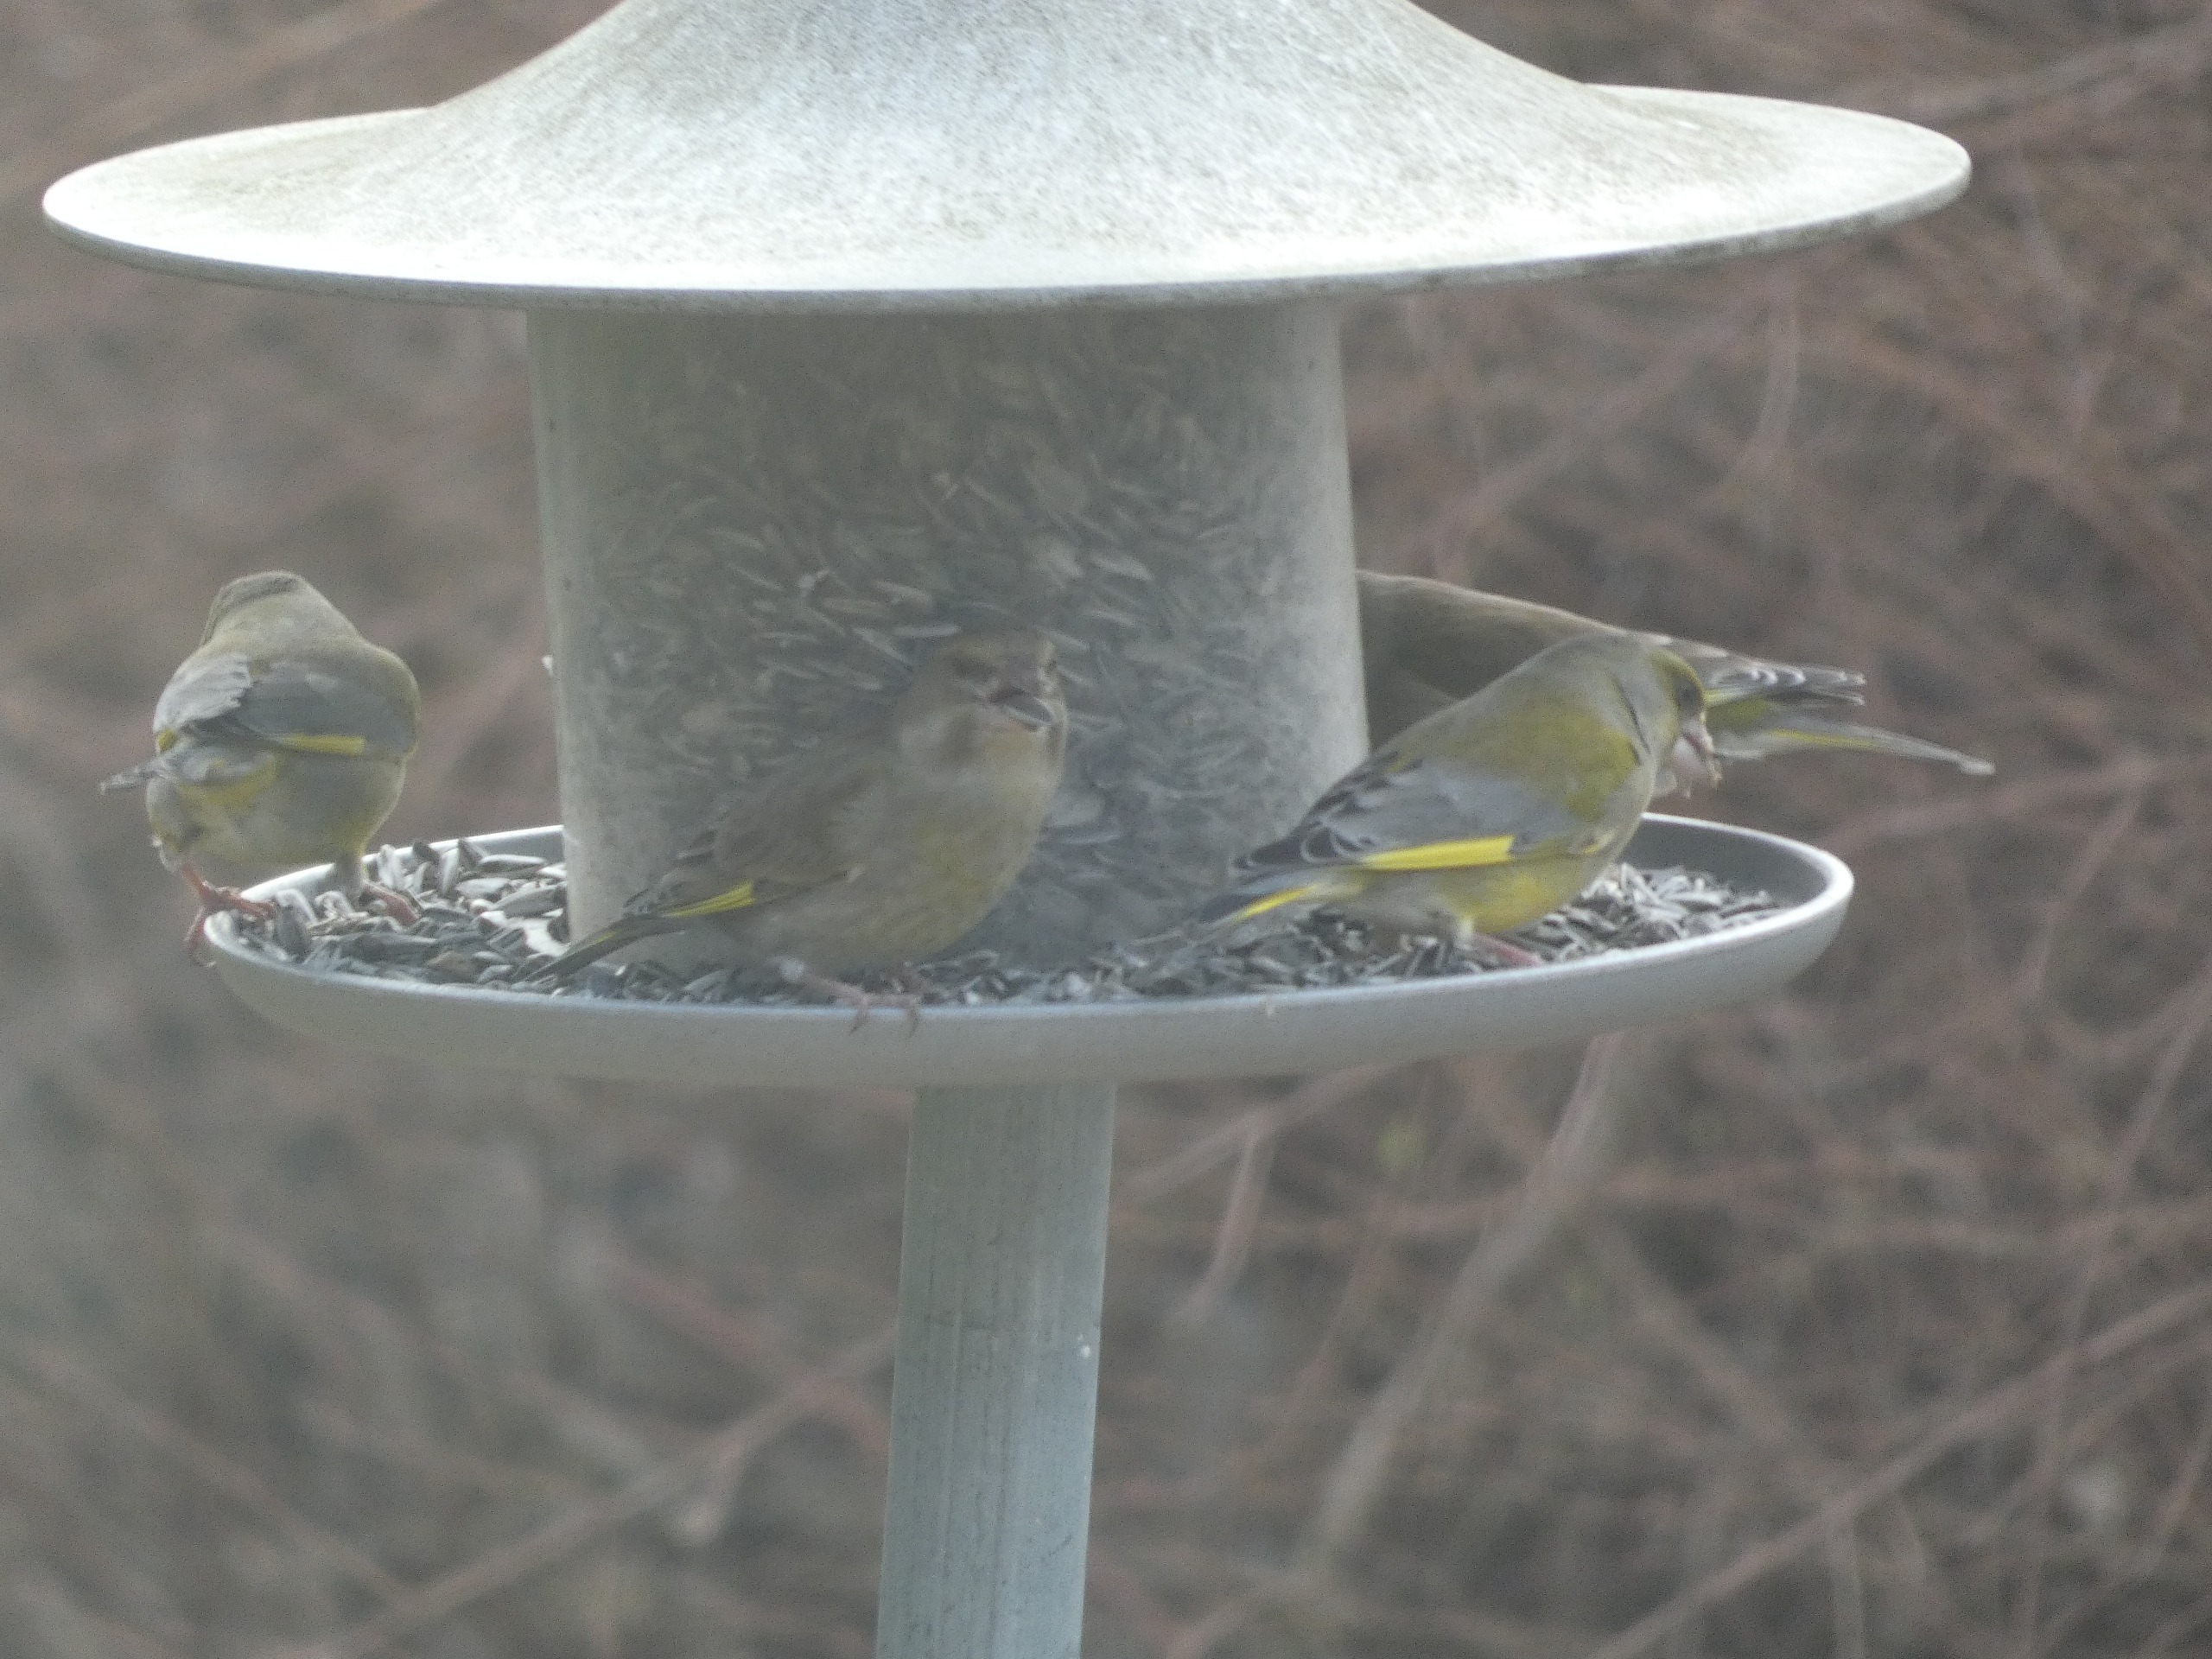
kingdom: Plantae
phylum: Tracheophyta
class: Liliopsida
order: Poales
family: Poaceae
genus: Chloris
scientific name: Chloris chloris
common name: Grønirisk
